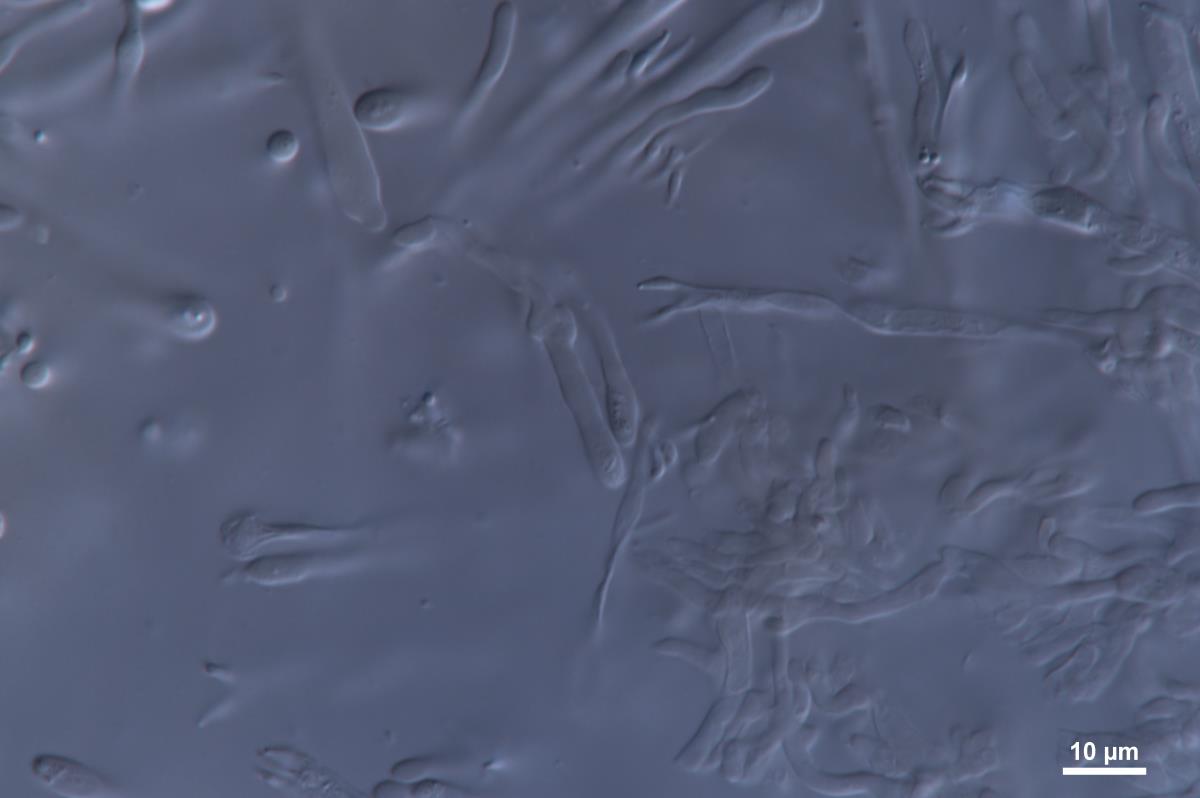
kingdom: Fungi
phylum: Basidiomycota
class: Agaricomycetes
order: Agaricales
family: Clavariaceae
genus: Clavaria
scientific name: Clavaria luteostirpata
